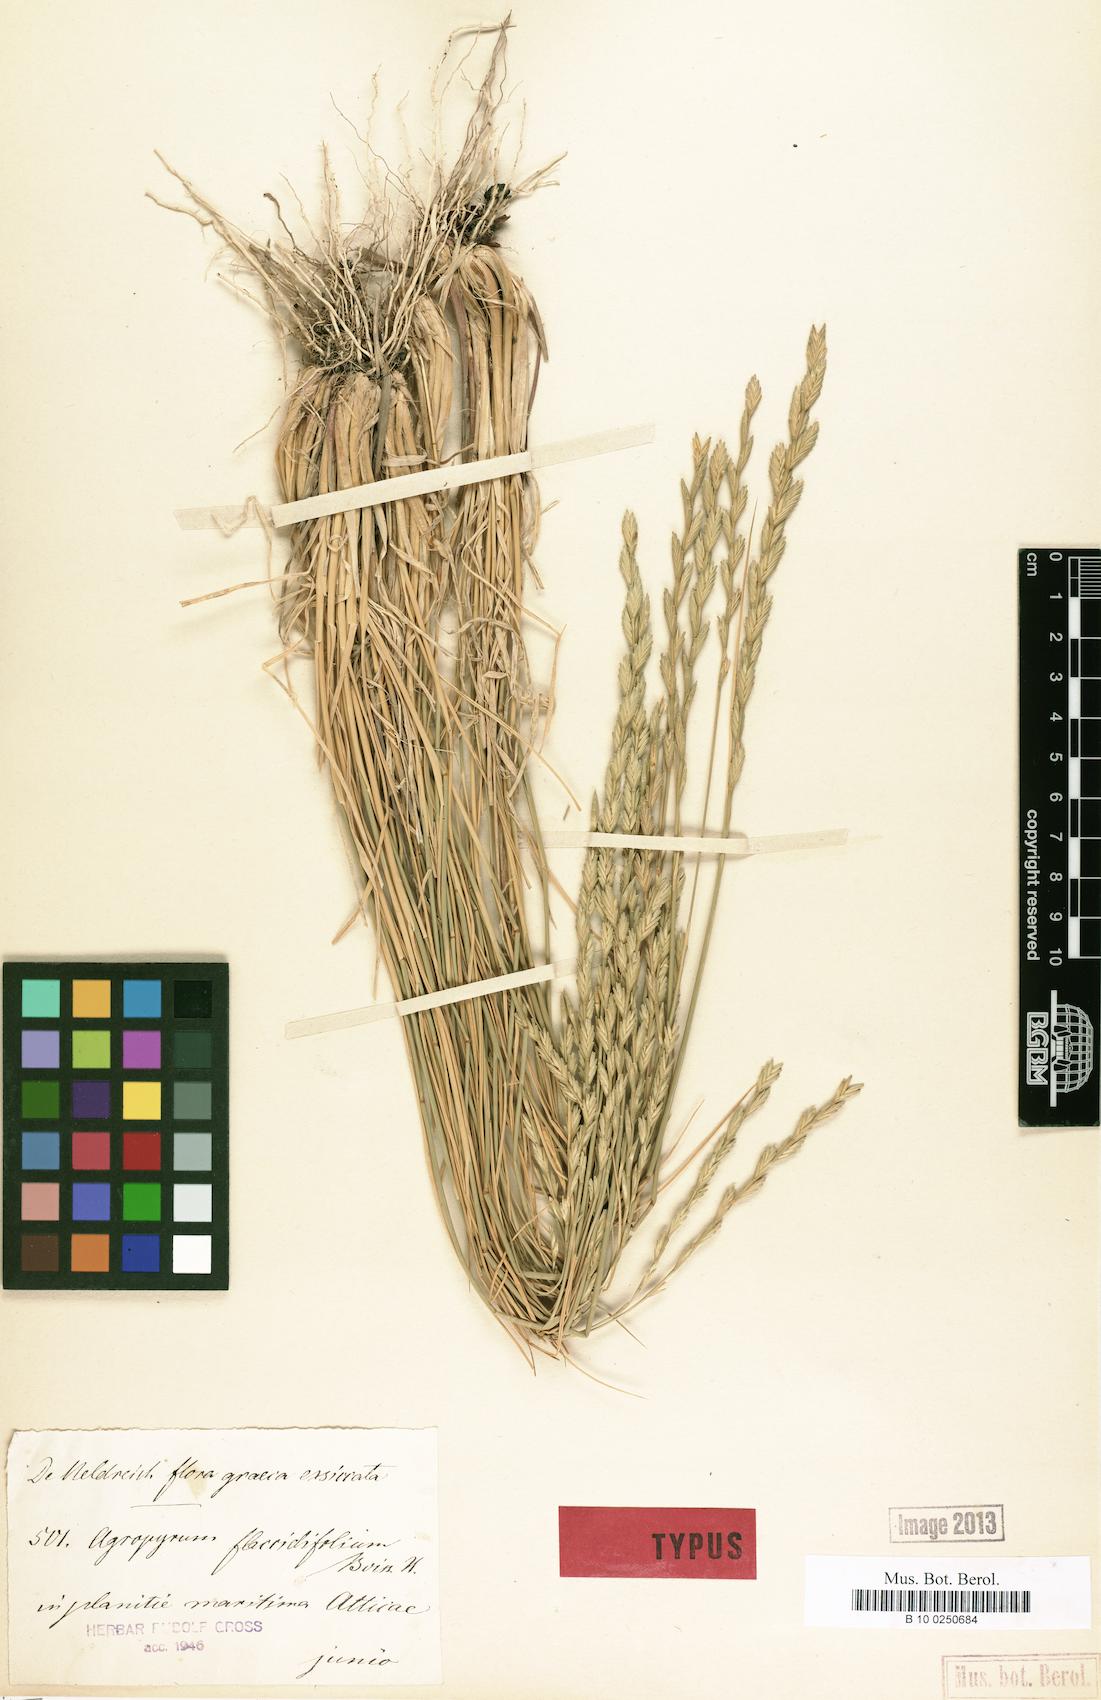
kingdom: Plantae
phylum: Tracheophyta
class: Liliopsida
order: Poales
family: Poaceae
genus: Agropyron
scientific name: Agropyron
